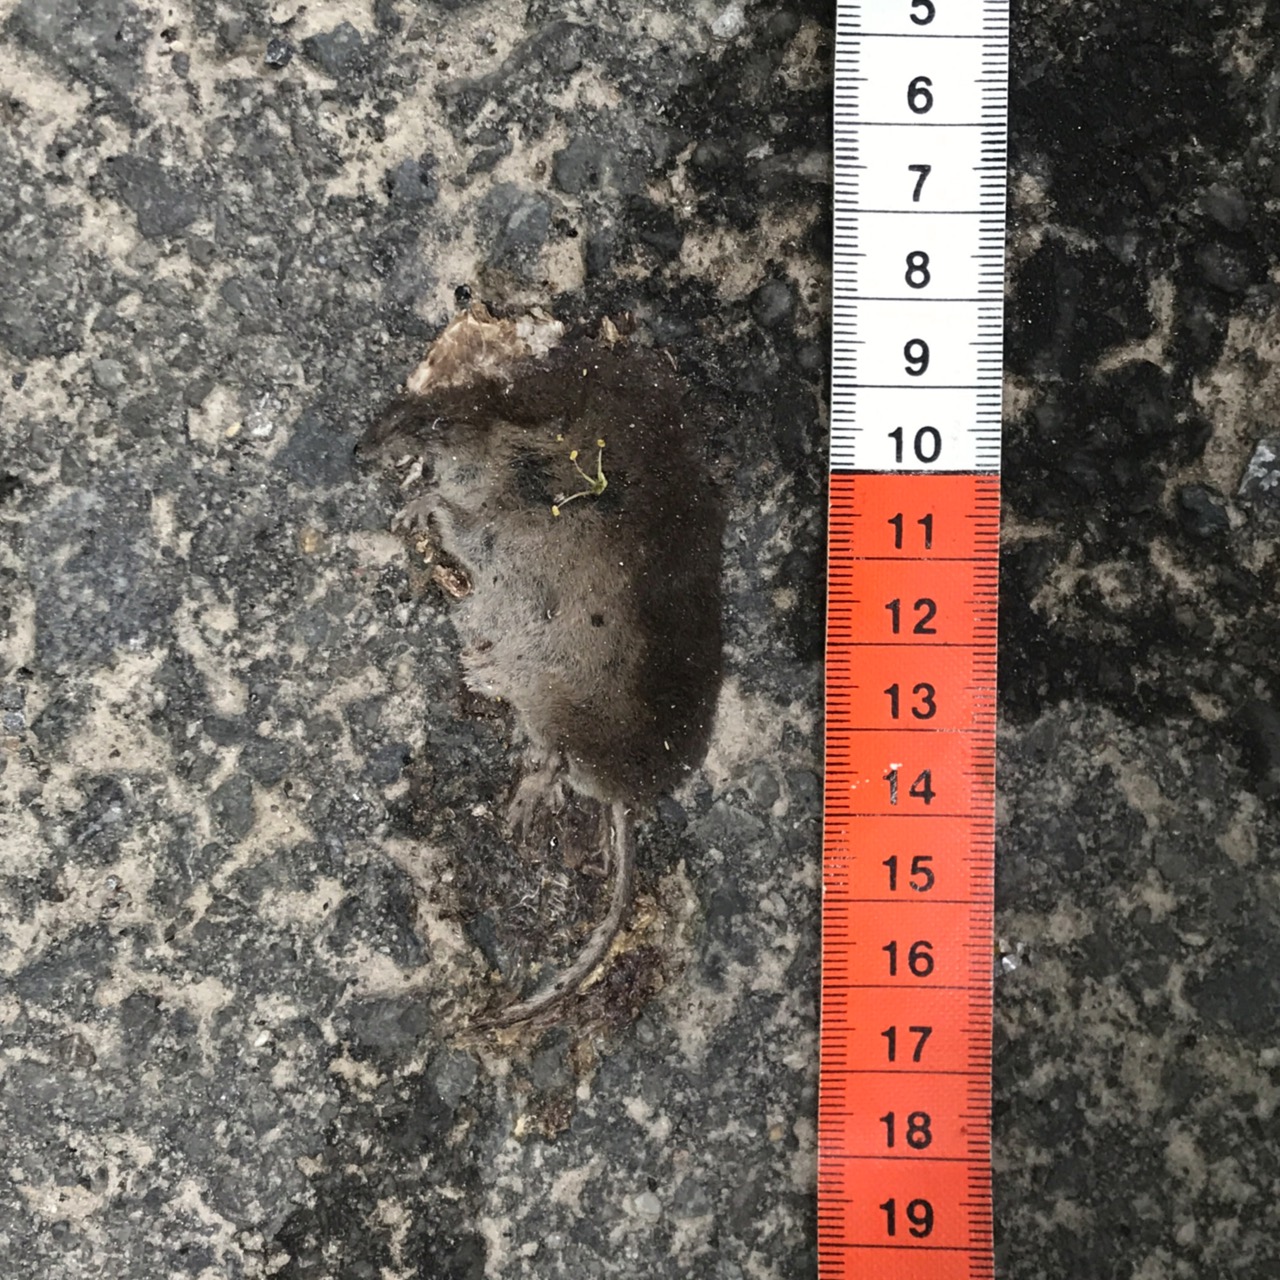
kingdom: Animalia
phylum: Chordata
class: Mammalia
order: Soricomorpha
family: Soricidae
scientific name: Soricidae
